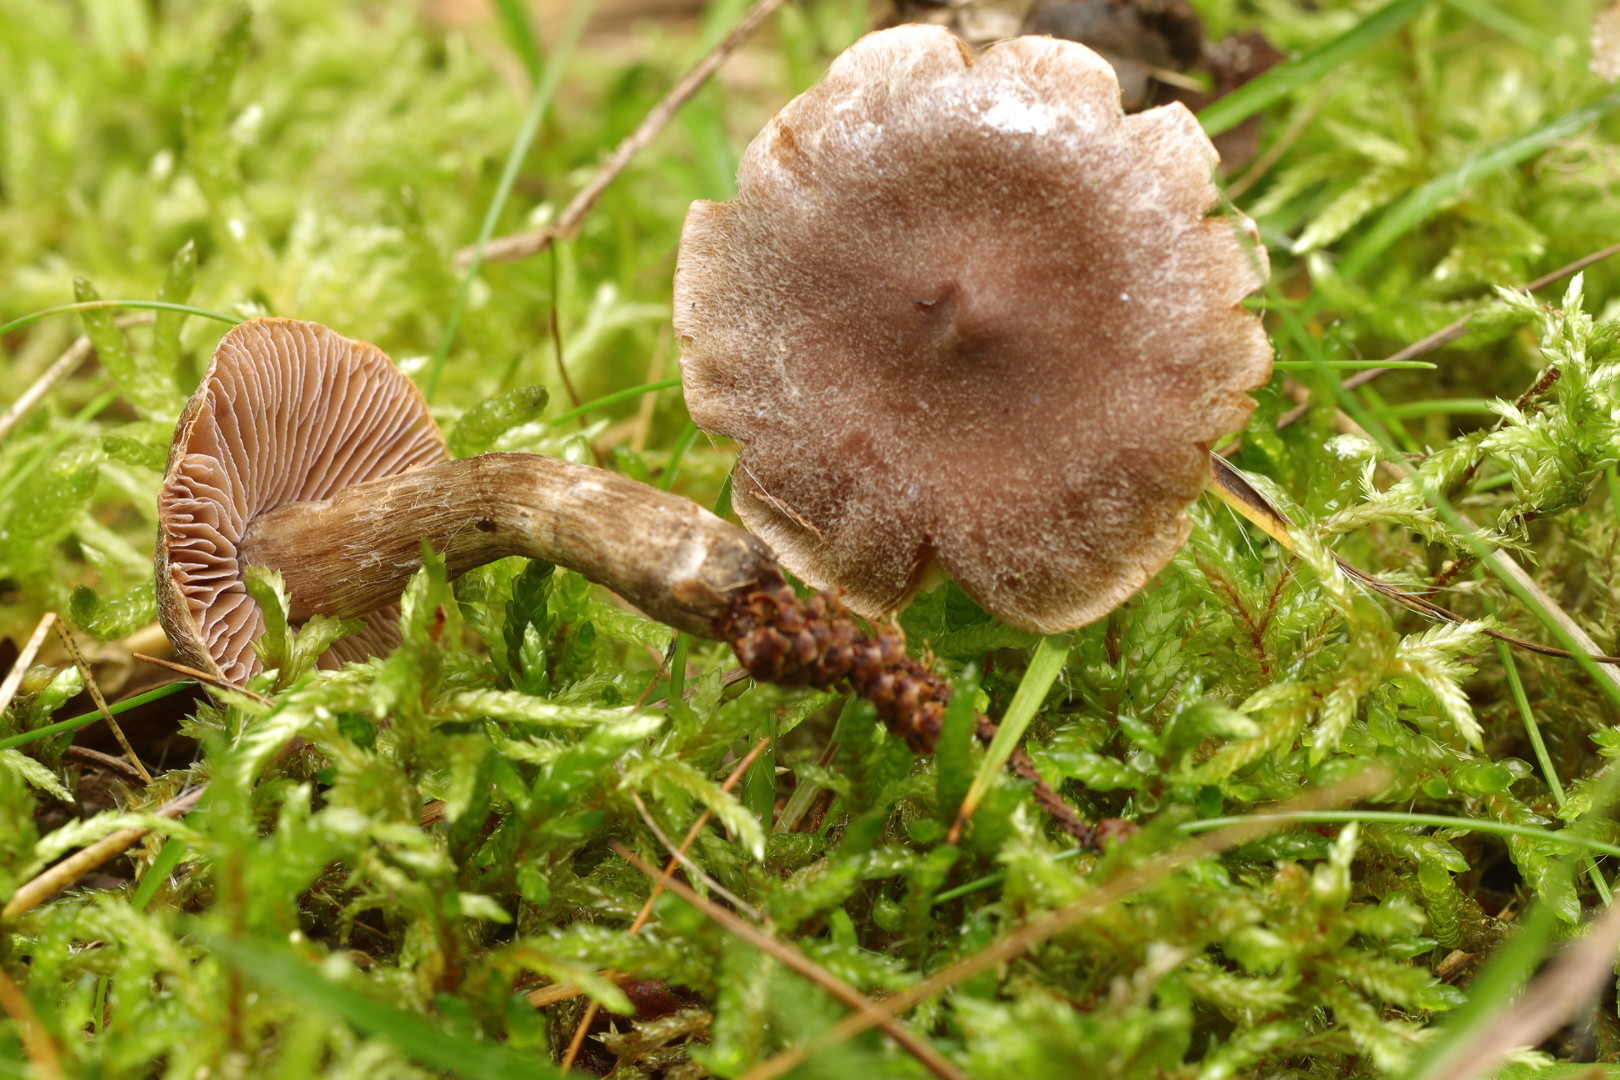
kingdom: Fungi
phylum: Basidiomycota
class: Agaricomycetes
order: Agaricales
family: Cortinariaceae
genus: Cortinarius
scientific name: Cortinarius nigrocuspidatus
